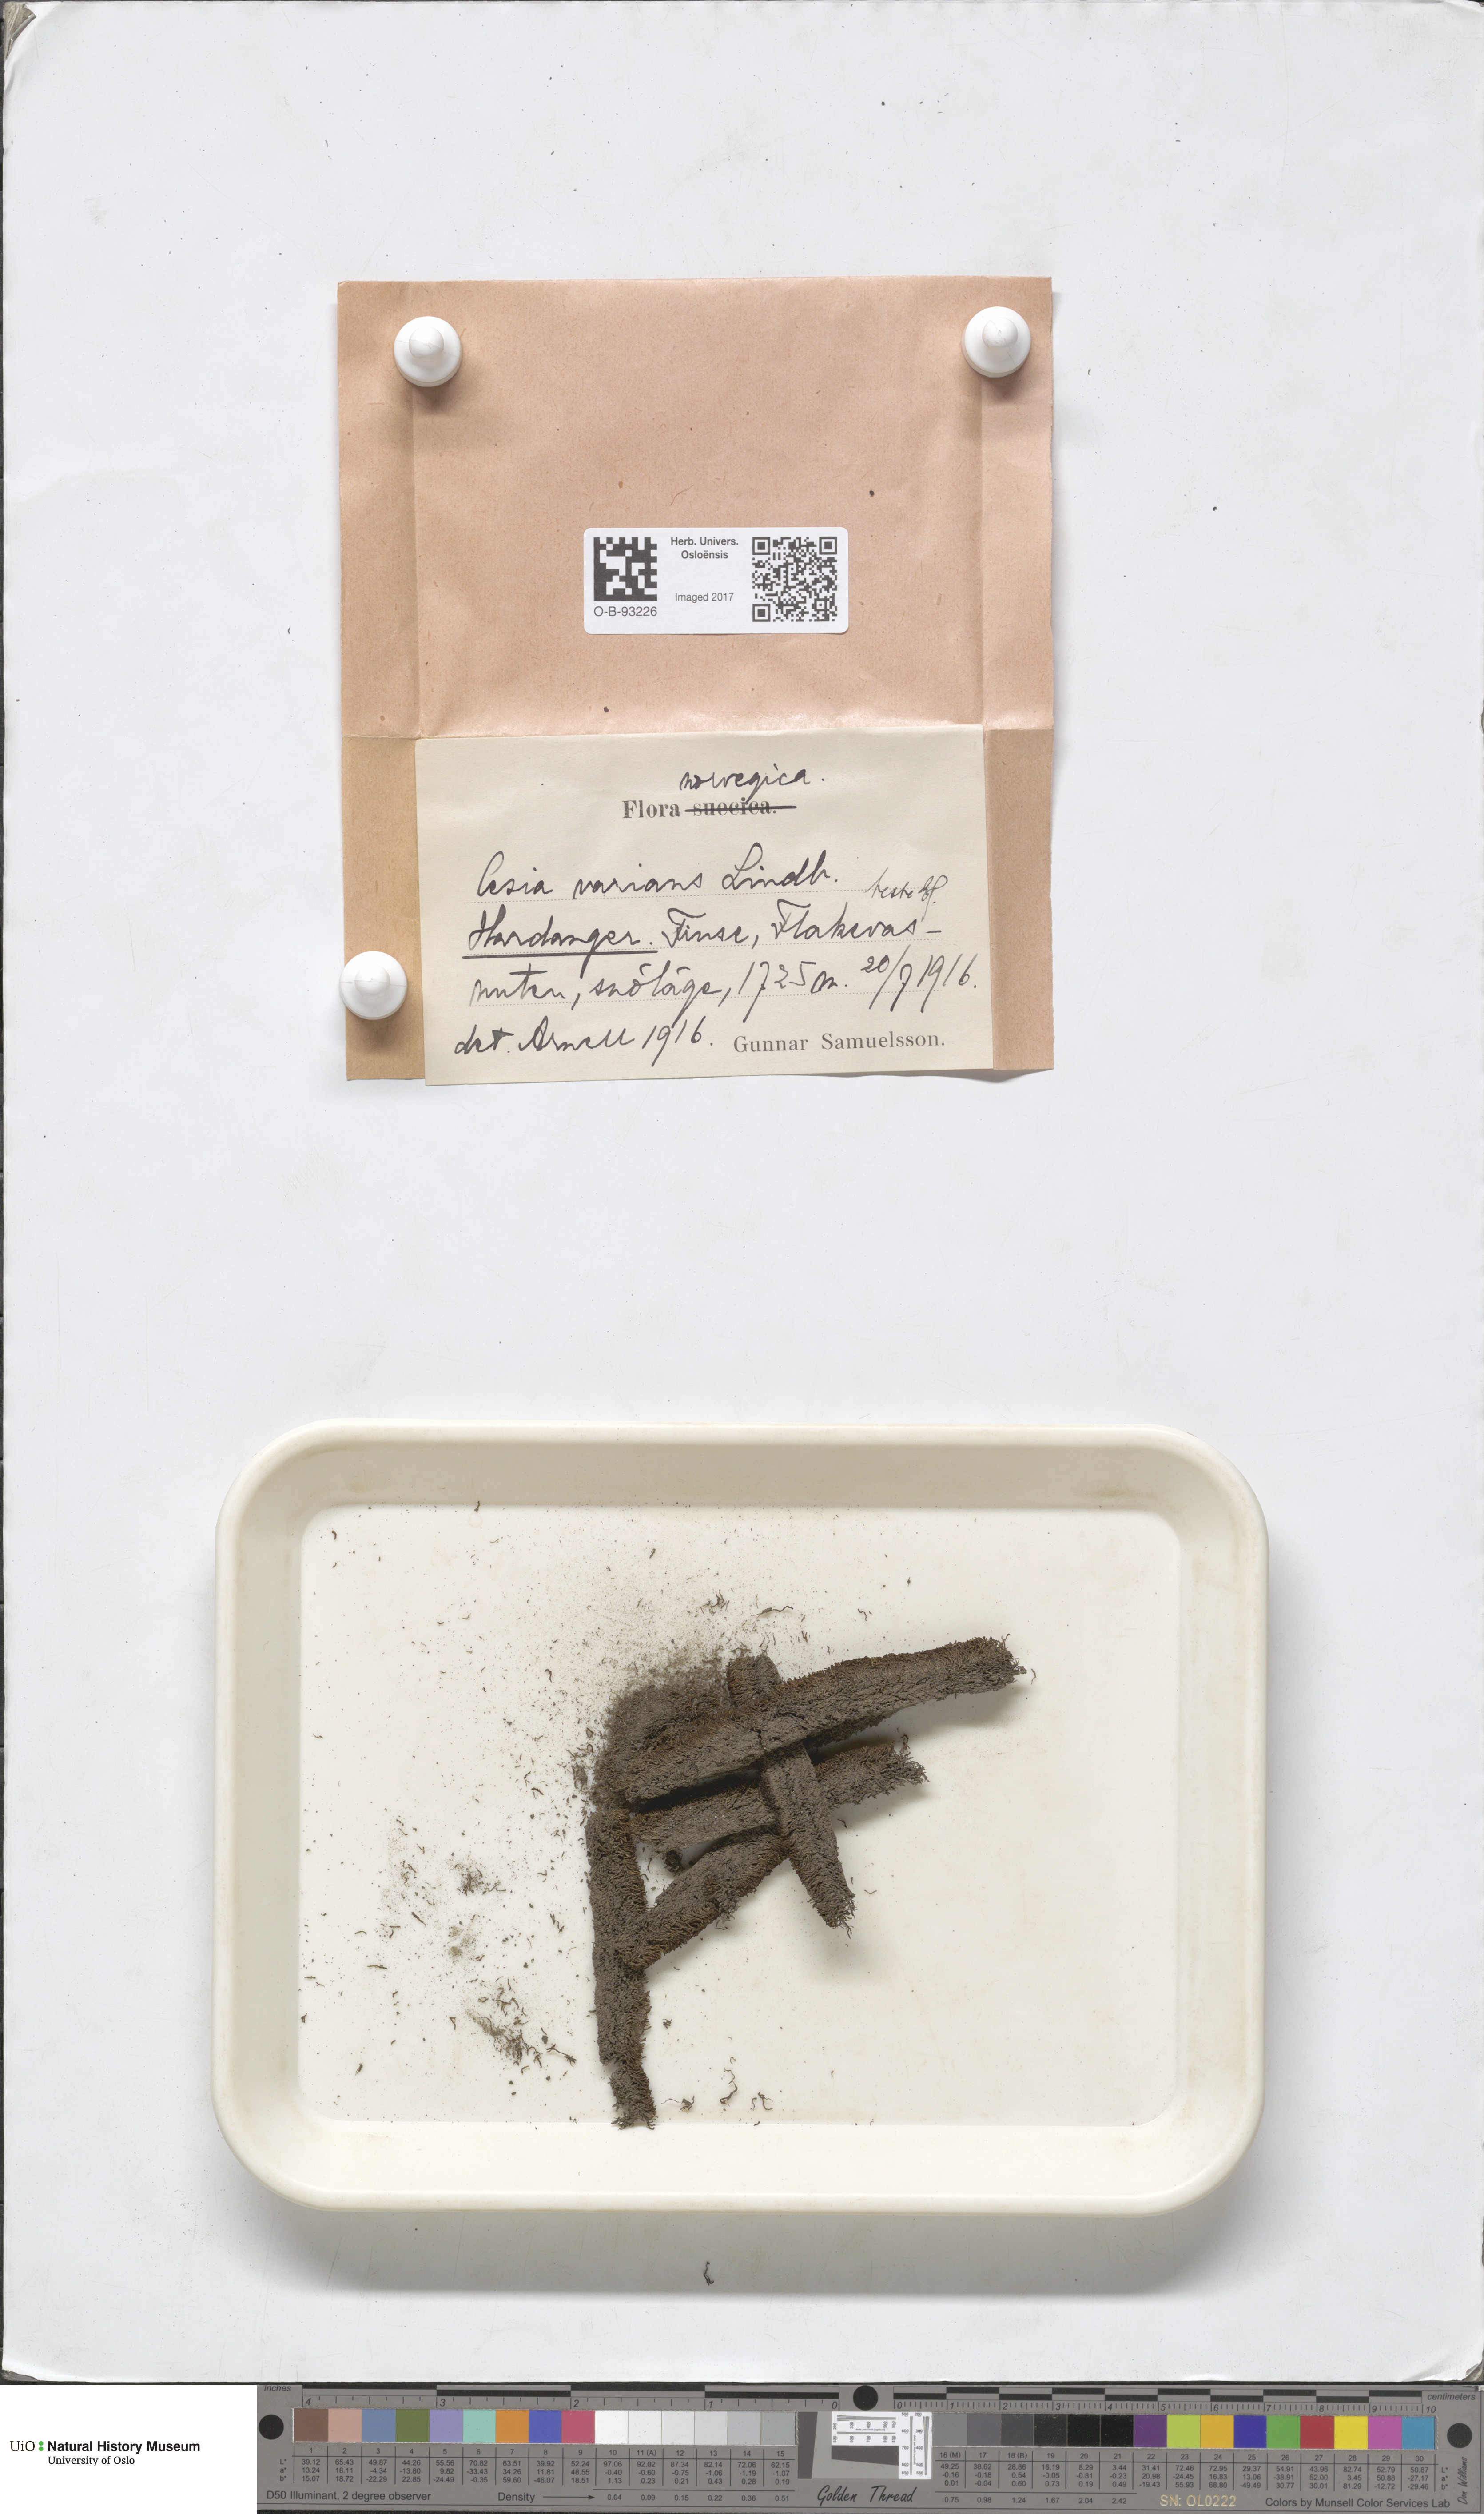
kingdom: Plantae
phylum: Marchantiophyta
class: Jungermanniopsida
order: Jungermanniales
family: Gymnomitriaceae
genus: Gymnomitrion
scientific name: Gymnomitrion brevissimum
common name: Snow rustwort
